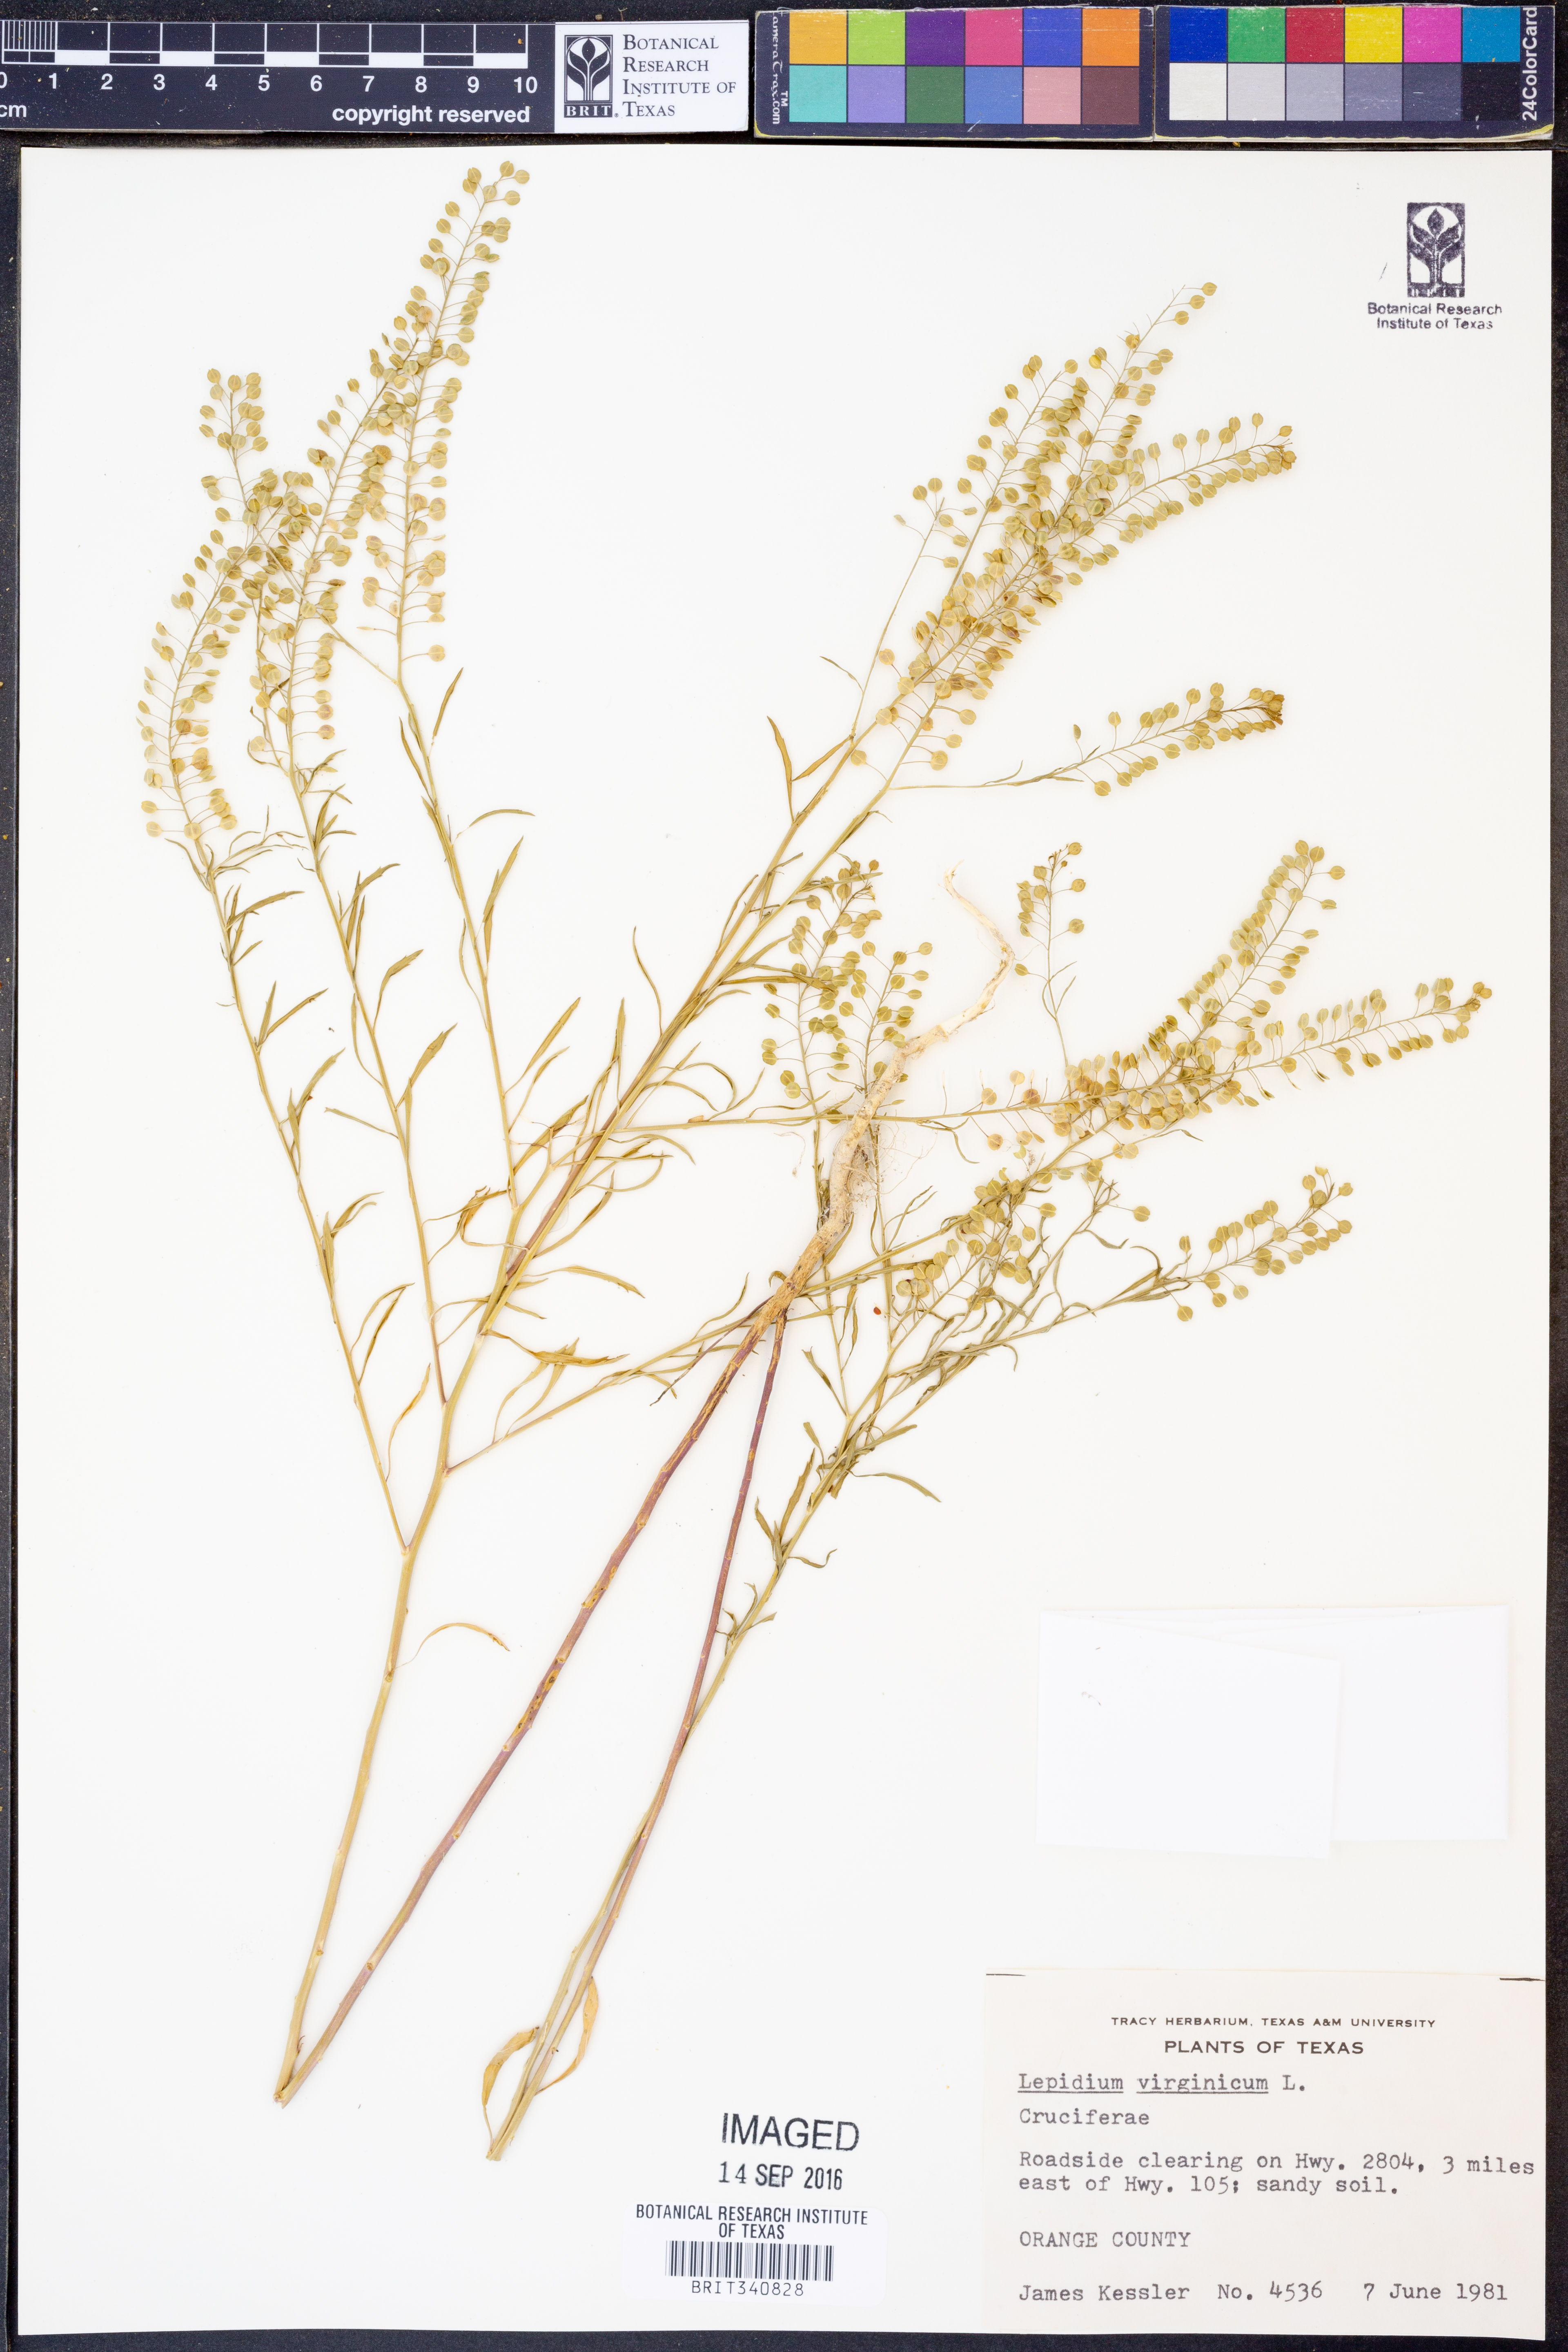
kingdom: Plantae
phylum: Tracheophyta
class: Magnoliopsida
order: Brassicales
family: Brassicaceae
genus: Lepidium
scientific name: Lepidium virginicum
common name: Least pepperwort
